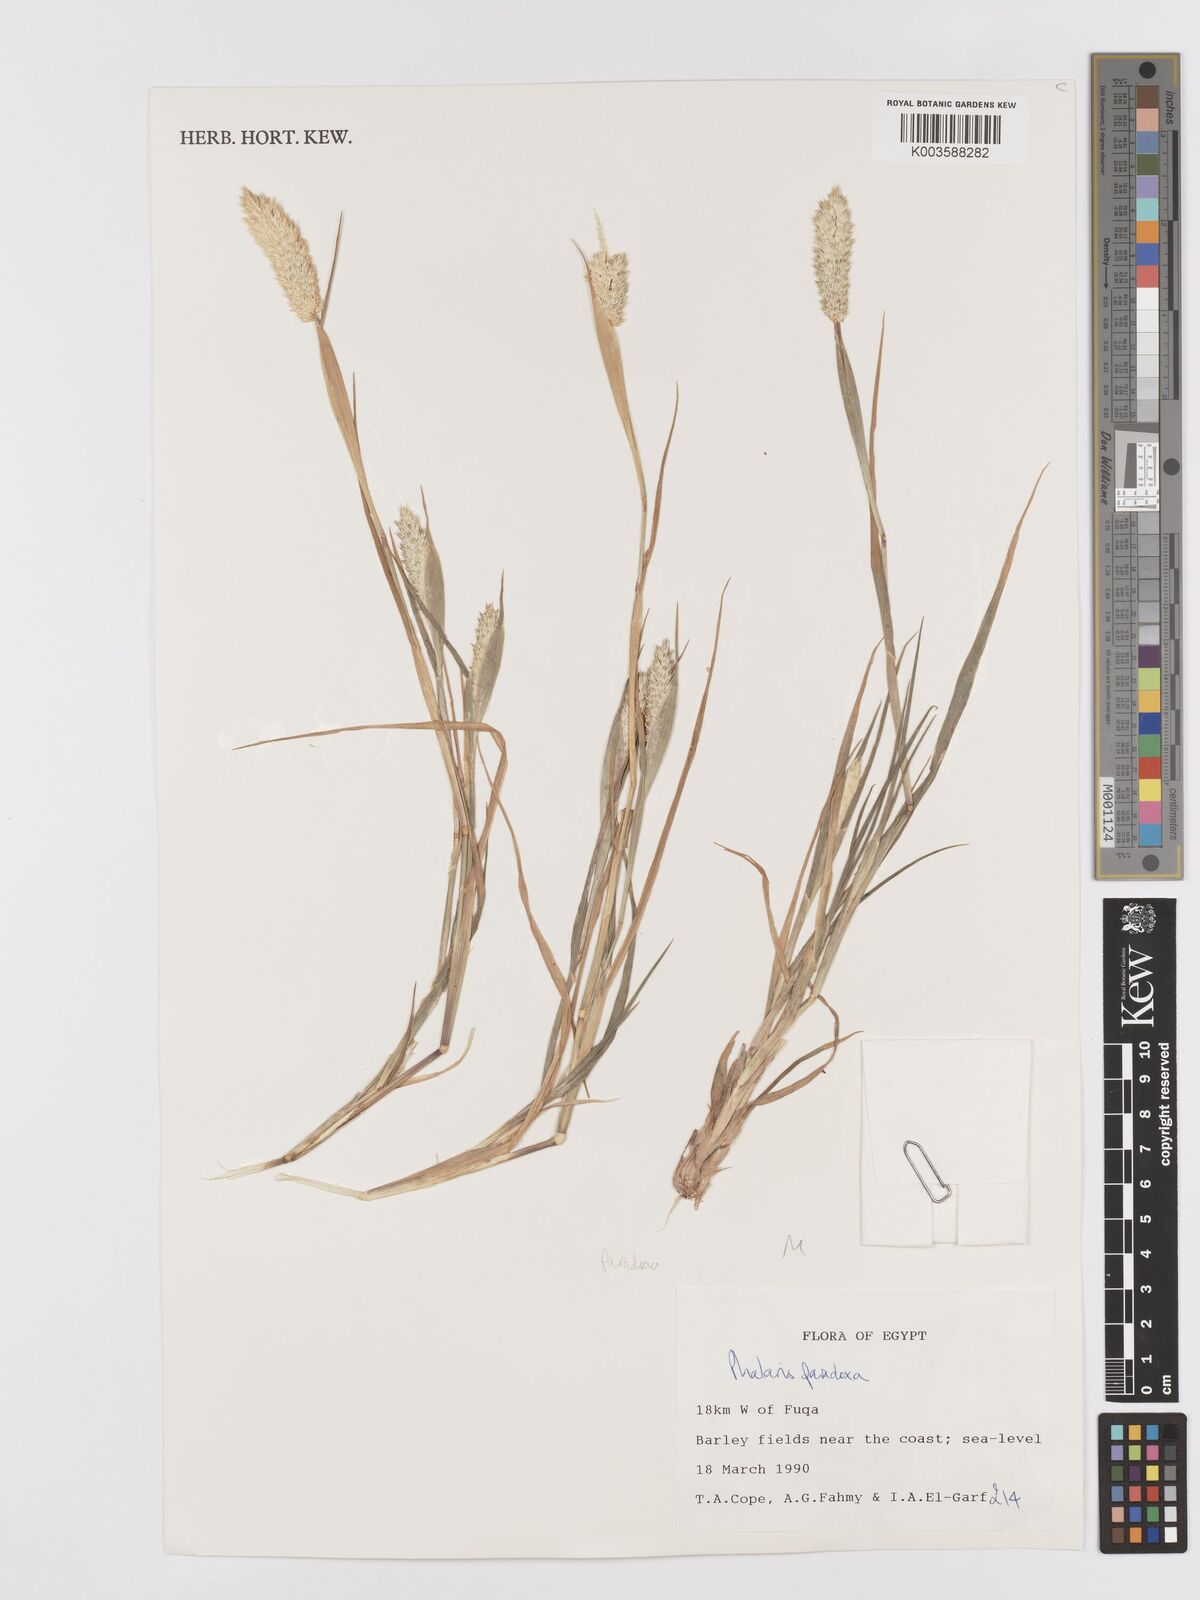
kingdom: Plantae
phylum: Tracheophyta
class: Liliopsida
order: Poales
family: Poaceae
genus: Phalaris
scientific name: Phalaris paradoxa
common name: Awned canary-grass
